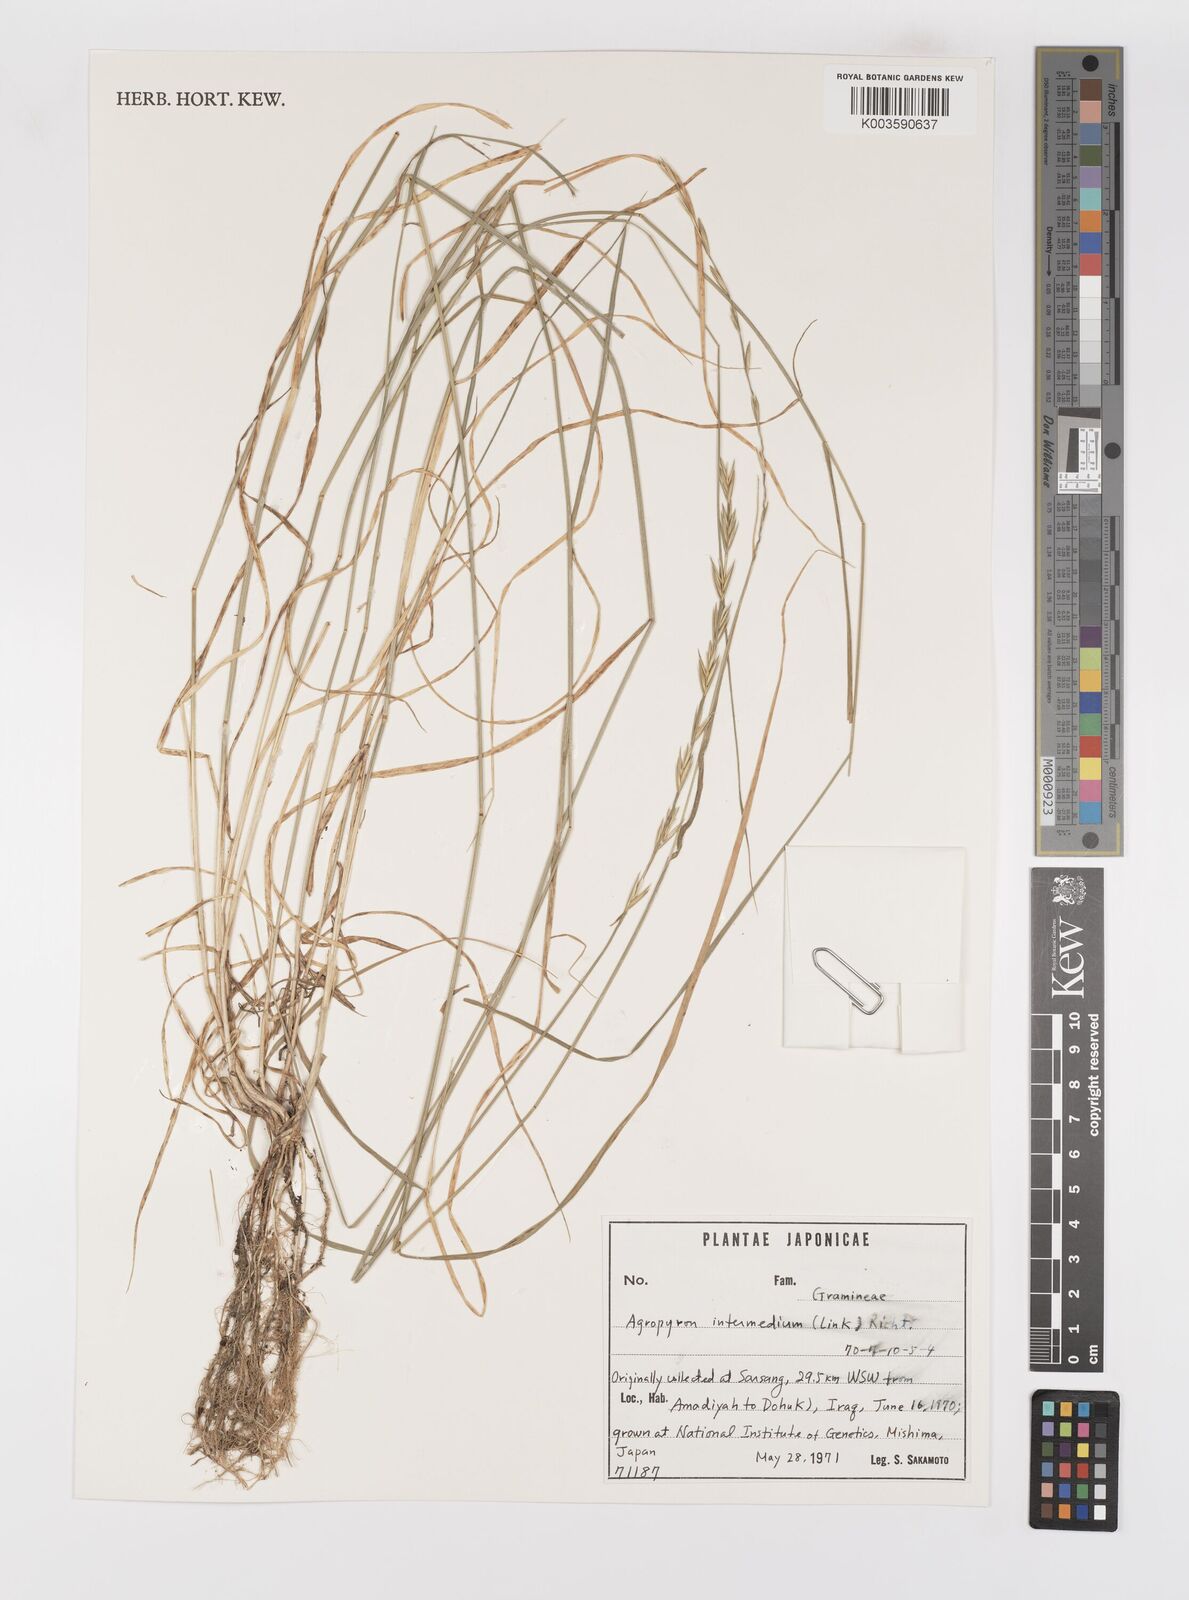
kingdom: Plantae
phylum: Tracheophyta
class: Liliopsida
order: Poales
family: Poaceae
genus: Thinopyrum
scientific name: Thinopyrum intermedium
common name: Intermediate wheatgrass
